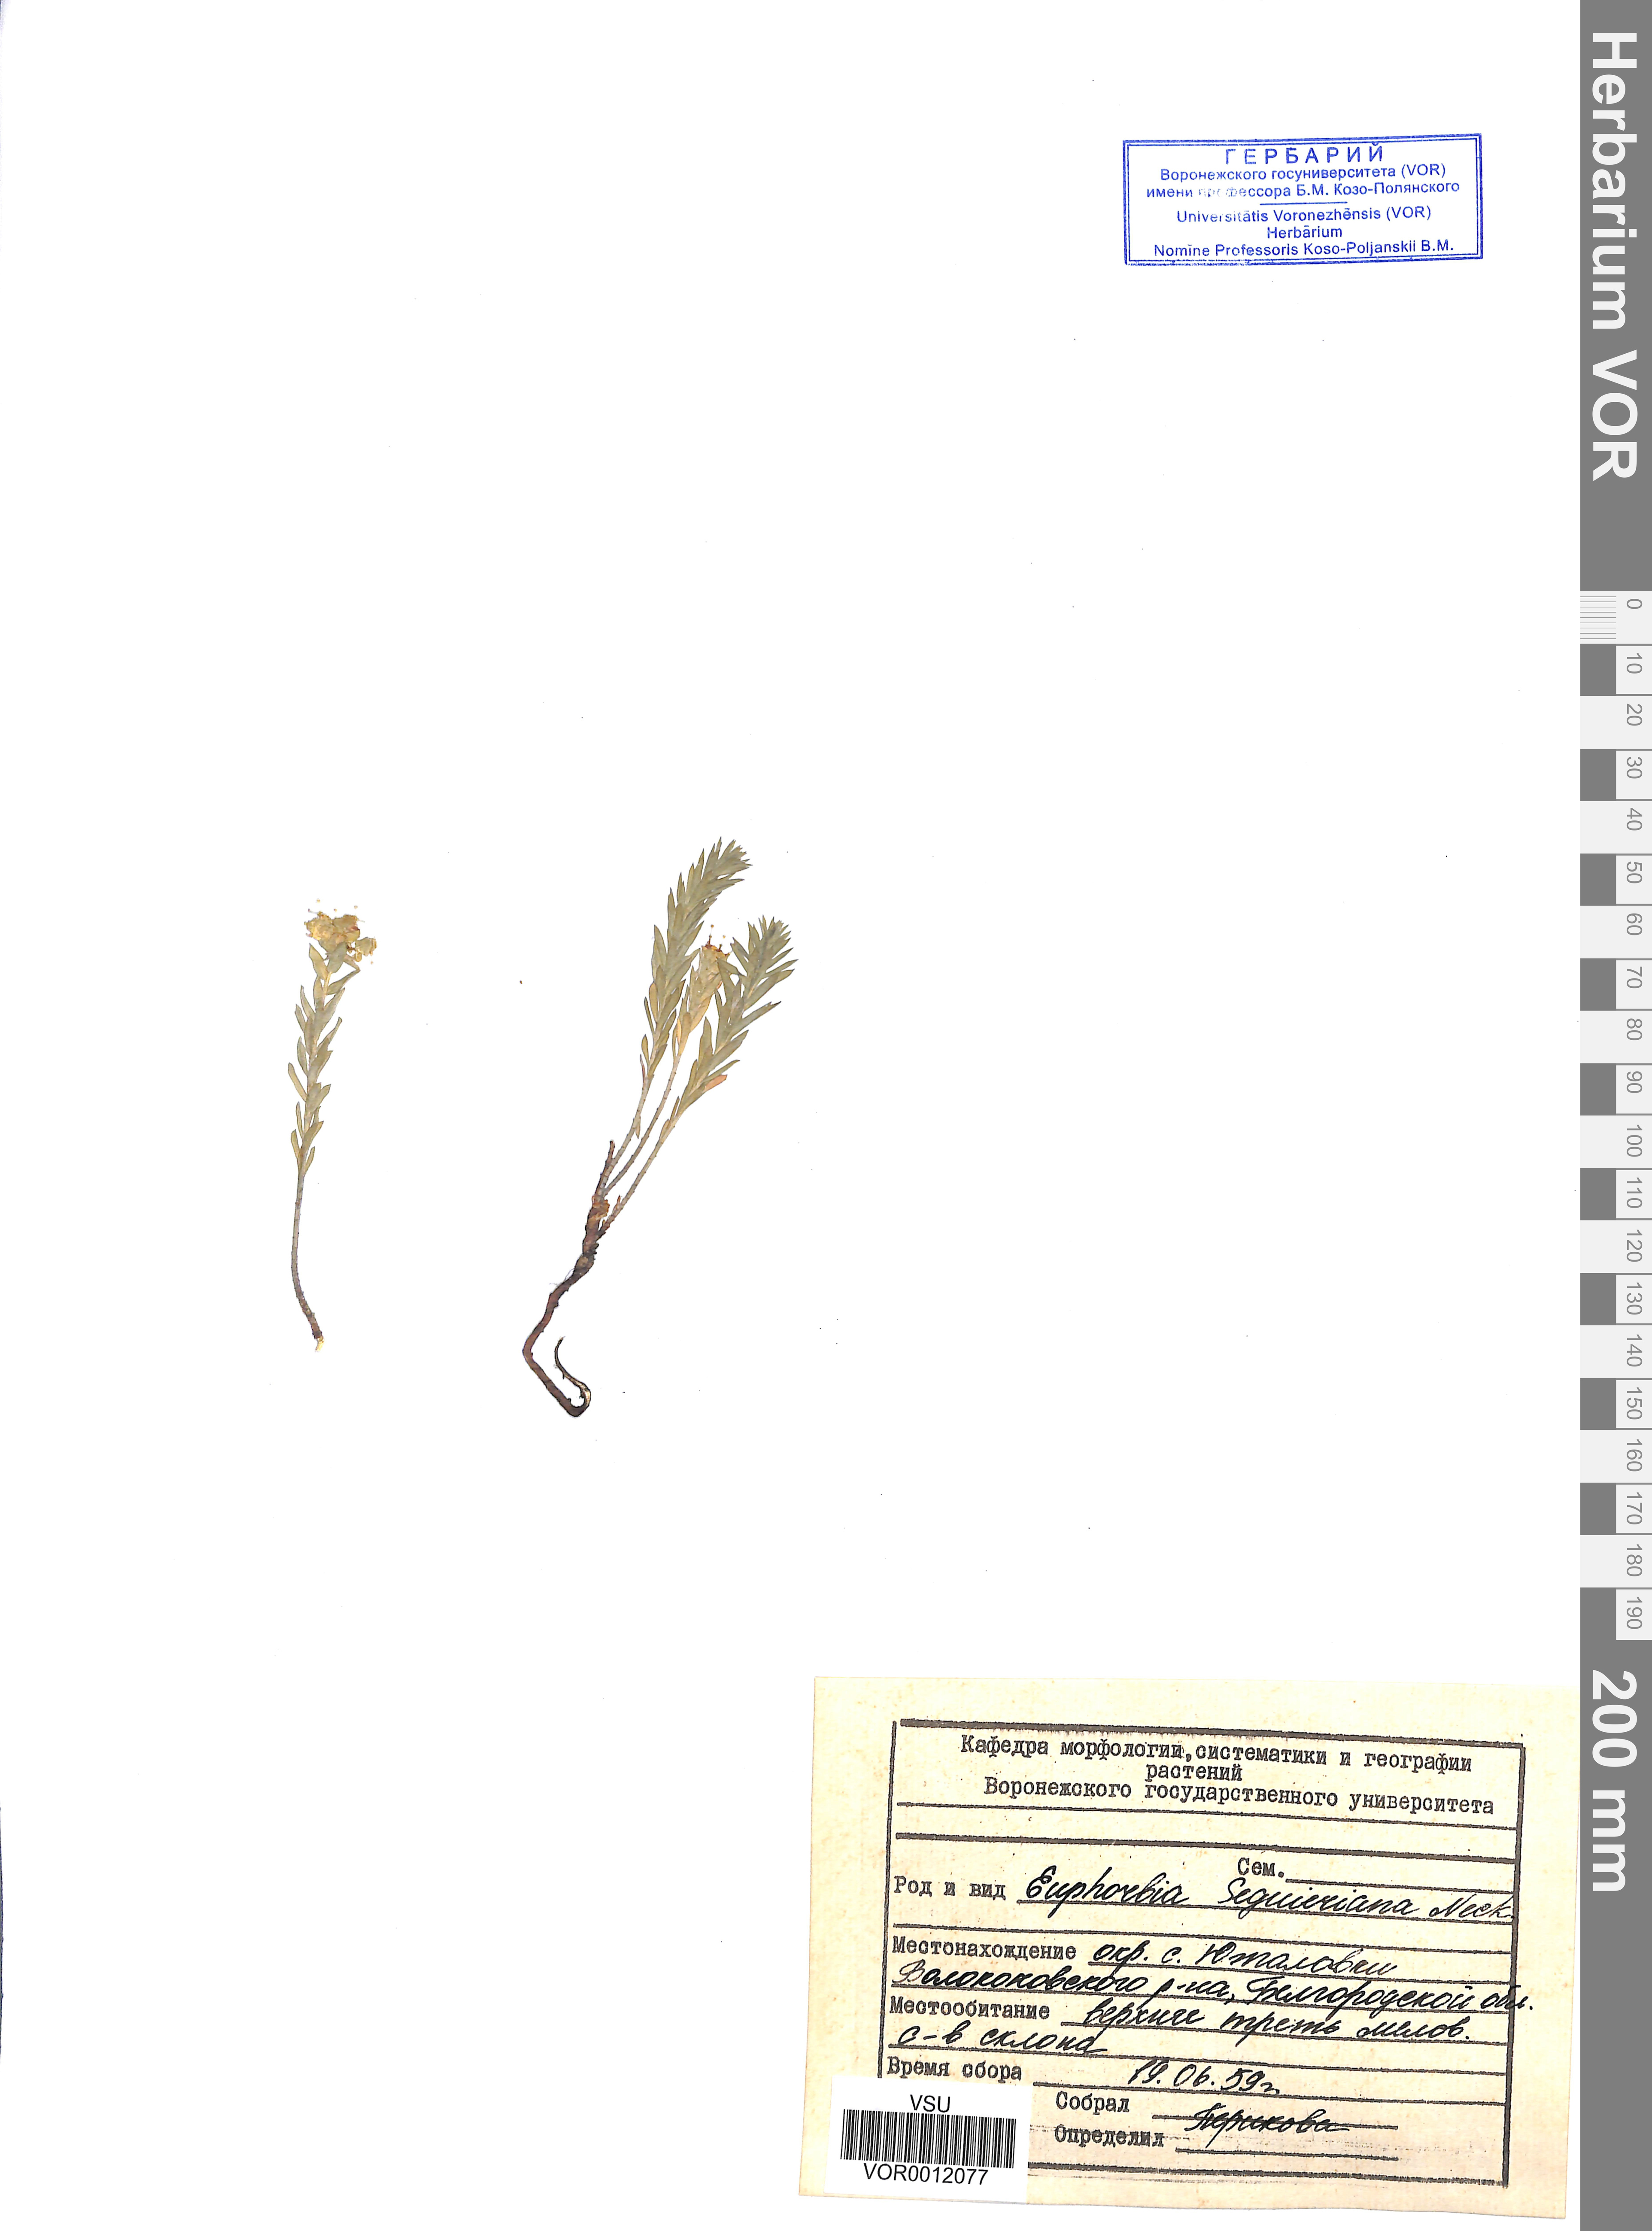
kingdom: Plantae
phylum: Tracheophyta
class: Magnoliopsida
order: Malpighiales
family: Euphorbiaceae
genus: Euphorbia
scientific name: Euphorbia seguieriana
